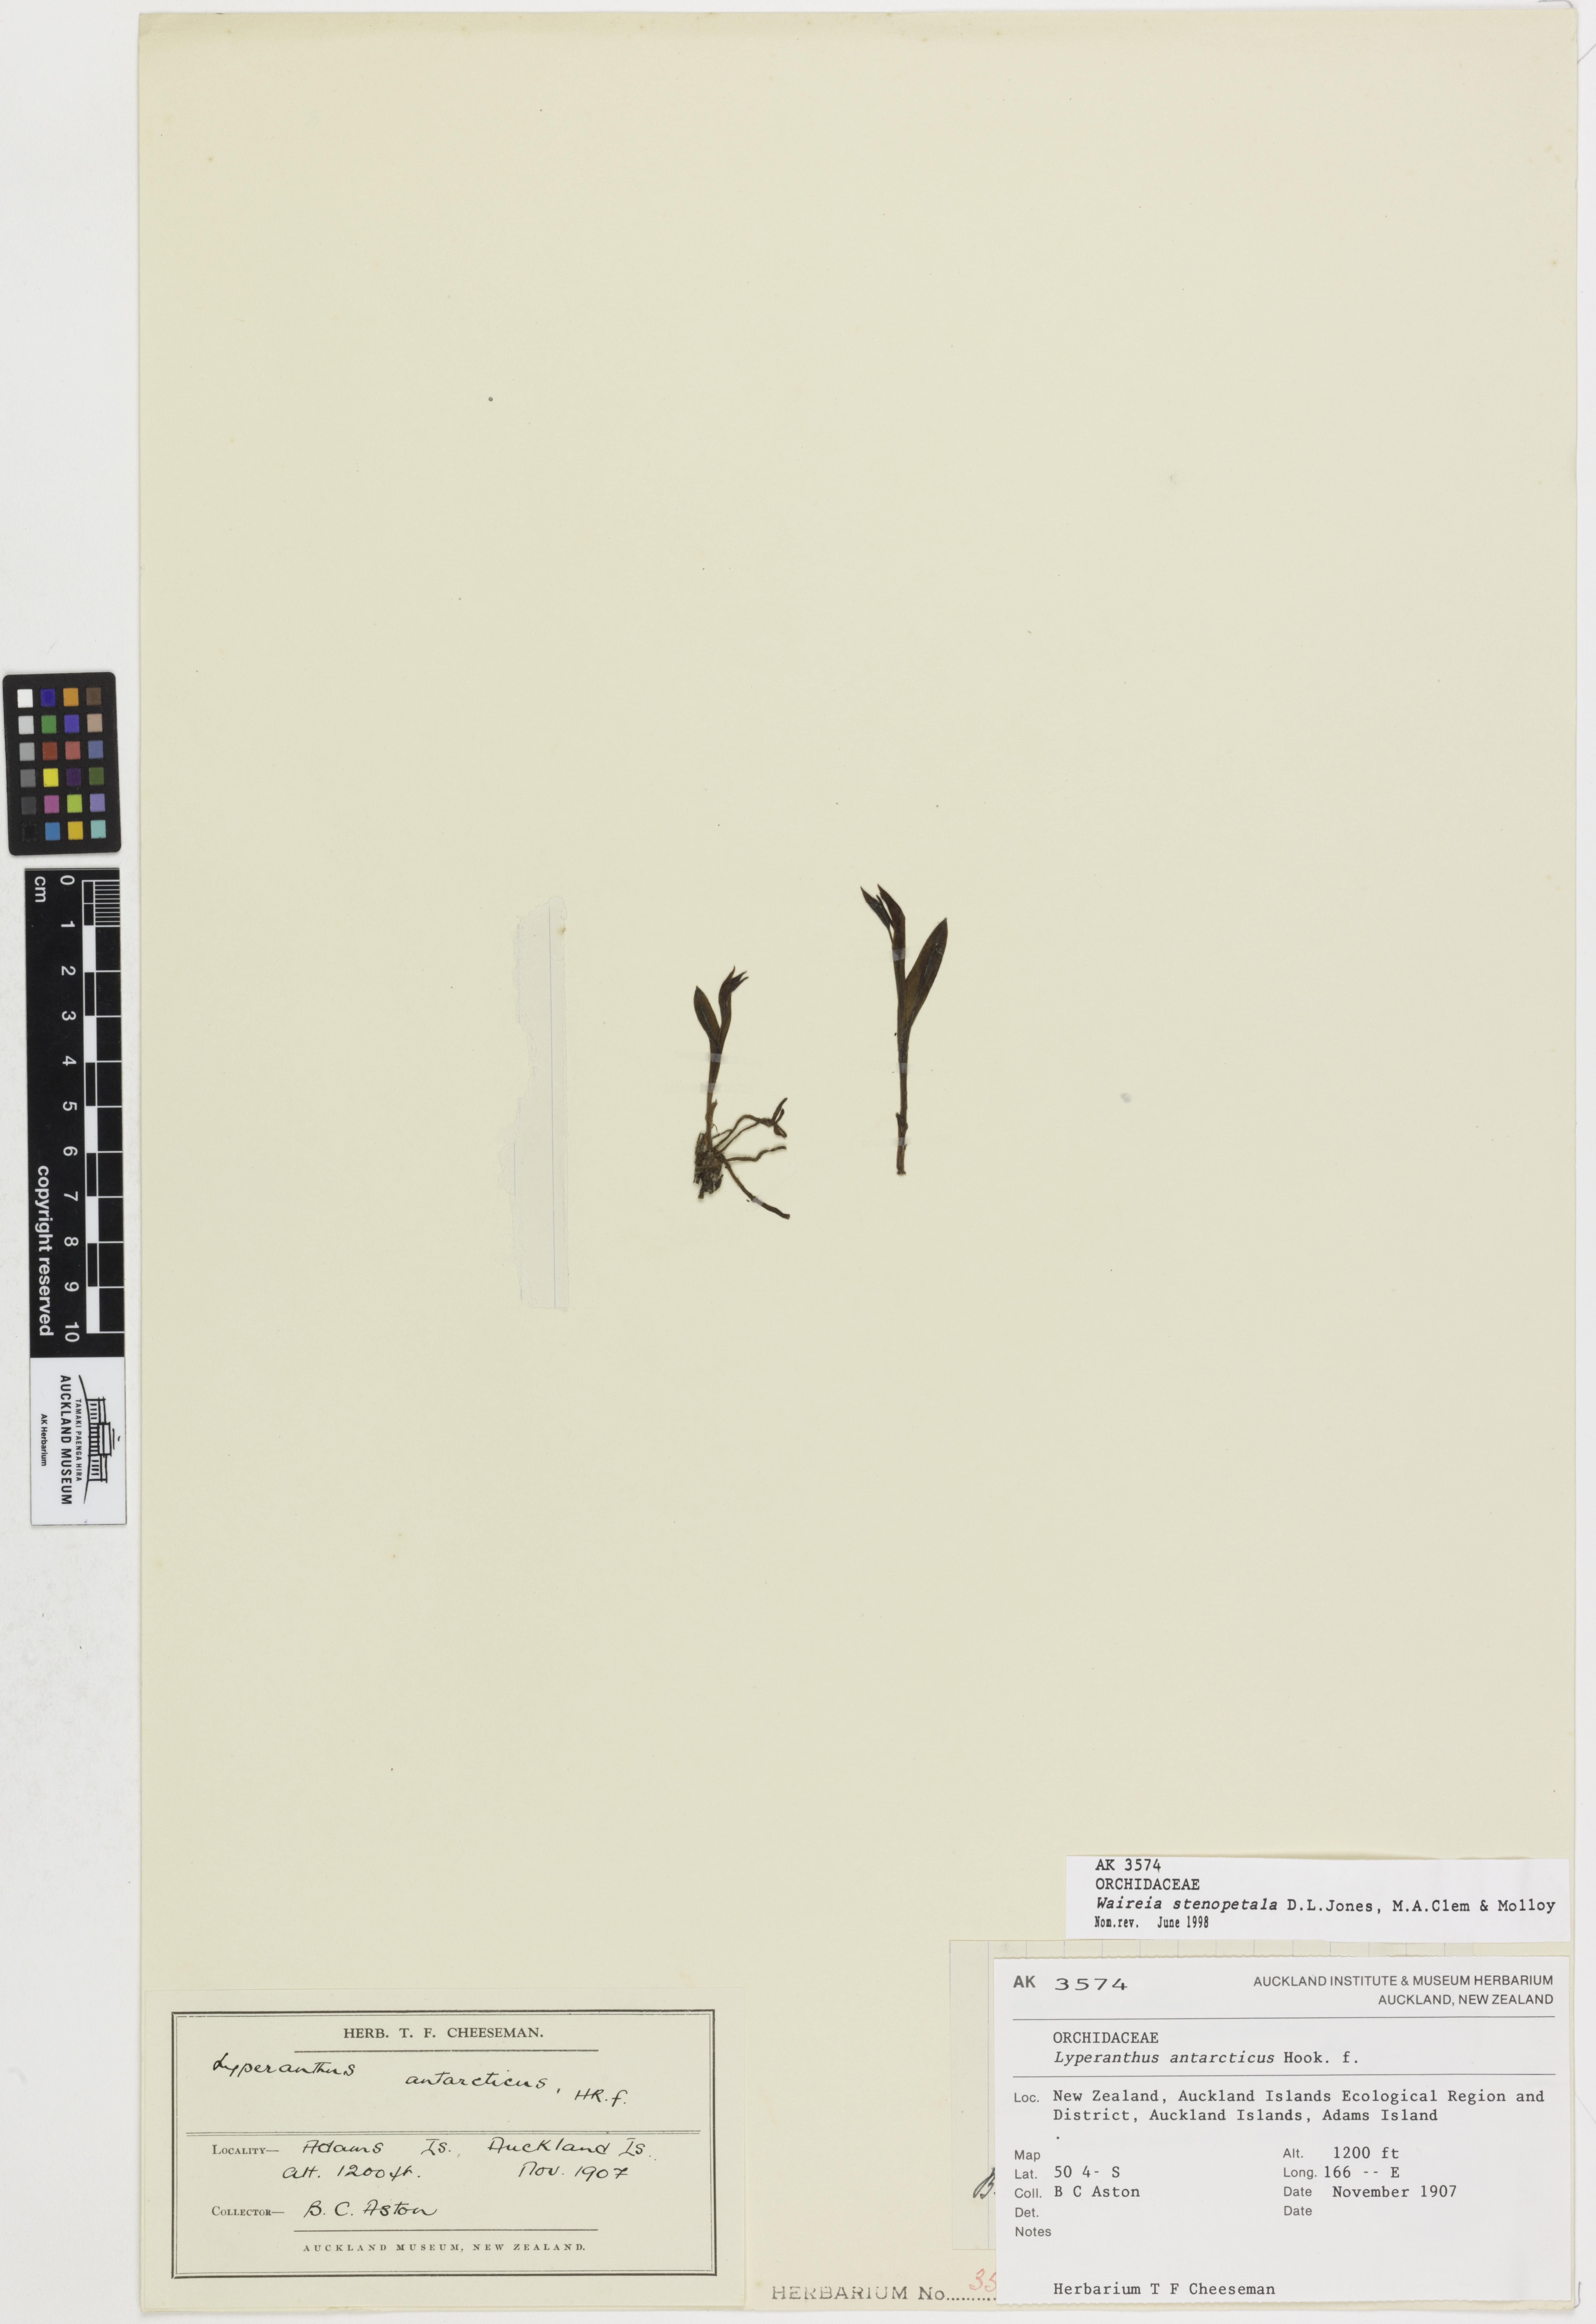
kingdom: Plantae
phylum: Tracheophyta
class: Liliopsida
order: Asparagales
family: Orchidaceae
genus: Waireia
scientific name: Waireia stenopetala
